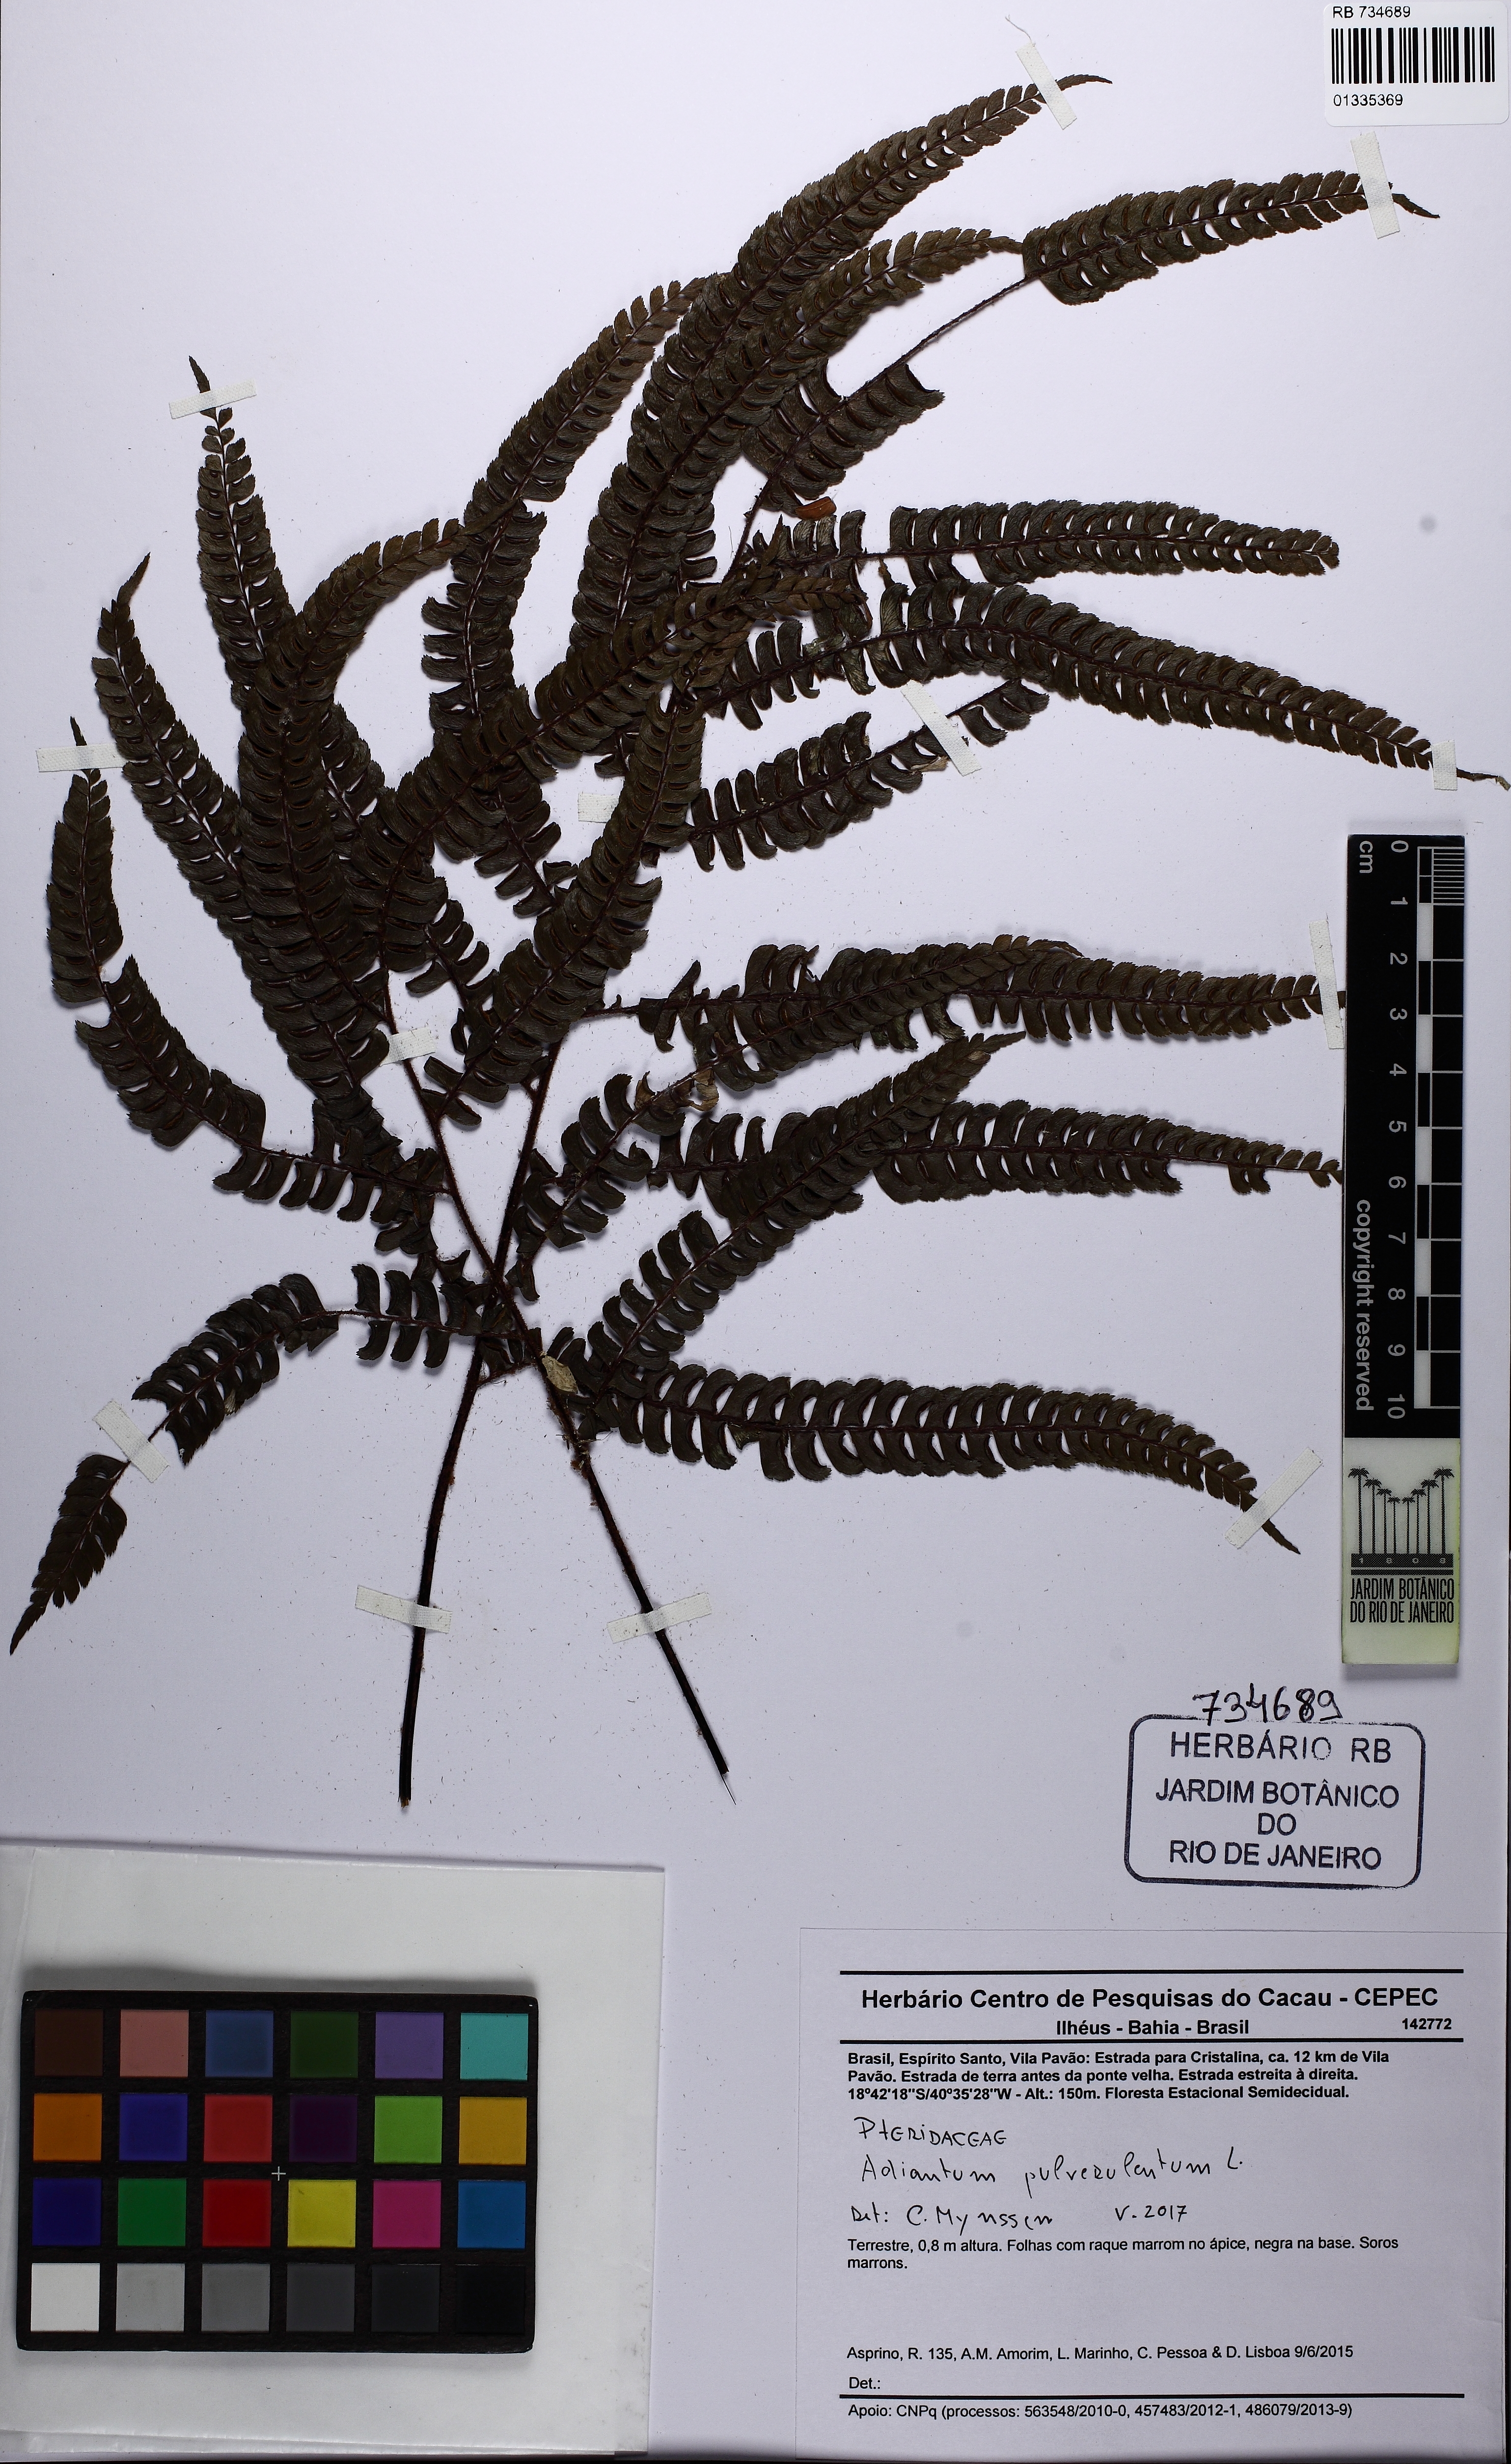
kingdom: Plantae
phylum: Tracheophyta
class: Polypodiopsida
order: Polypodiales
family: Pteridaceae
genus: Adiantum
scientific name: Adiantum pulverulentum
